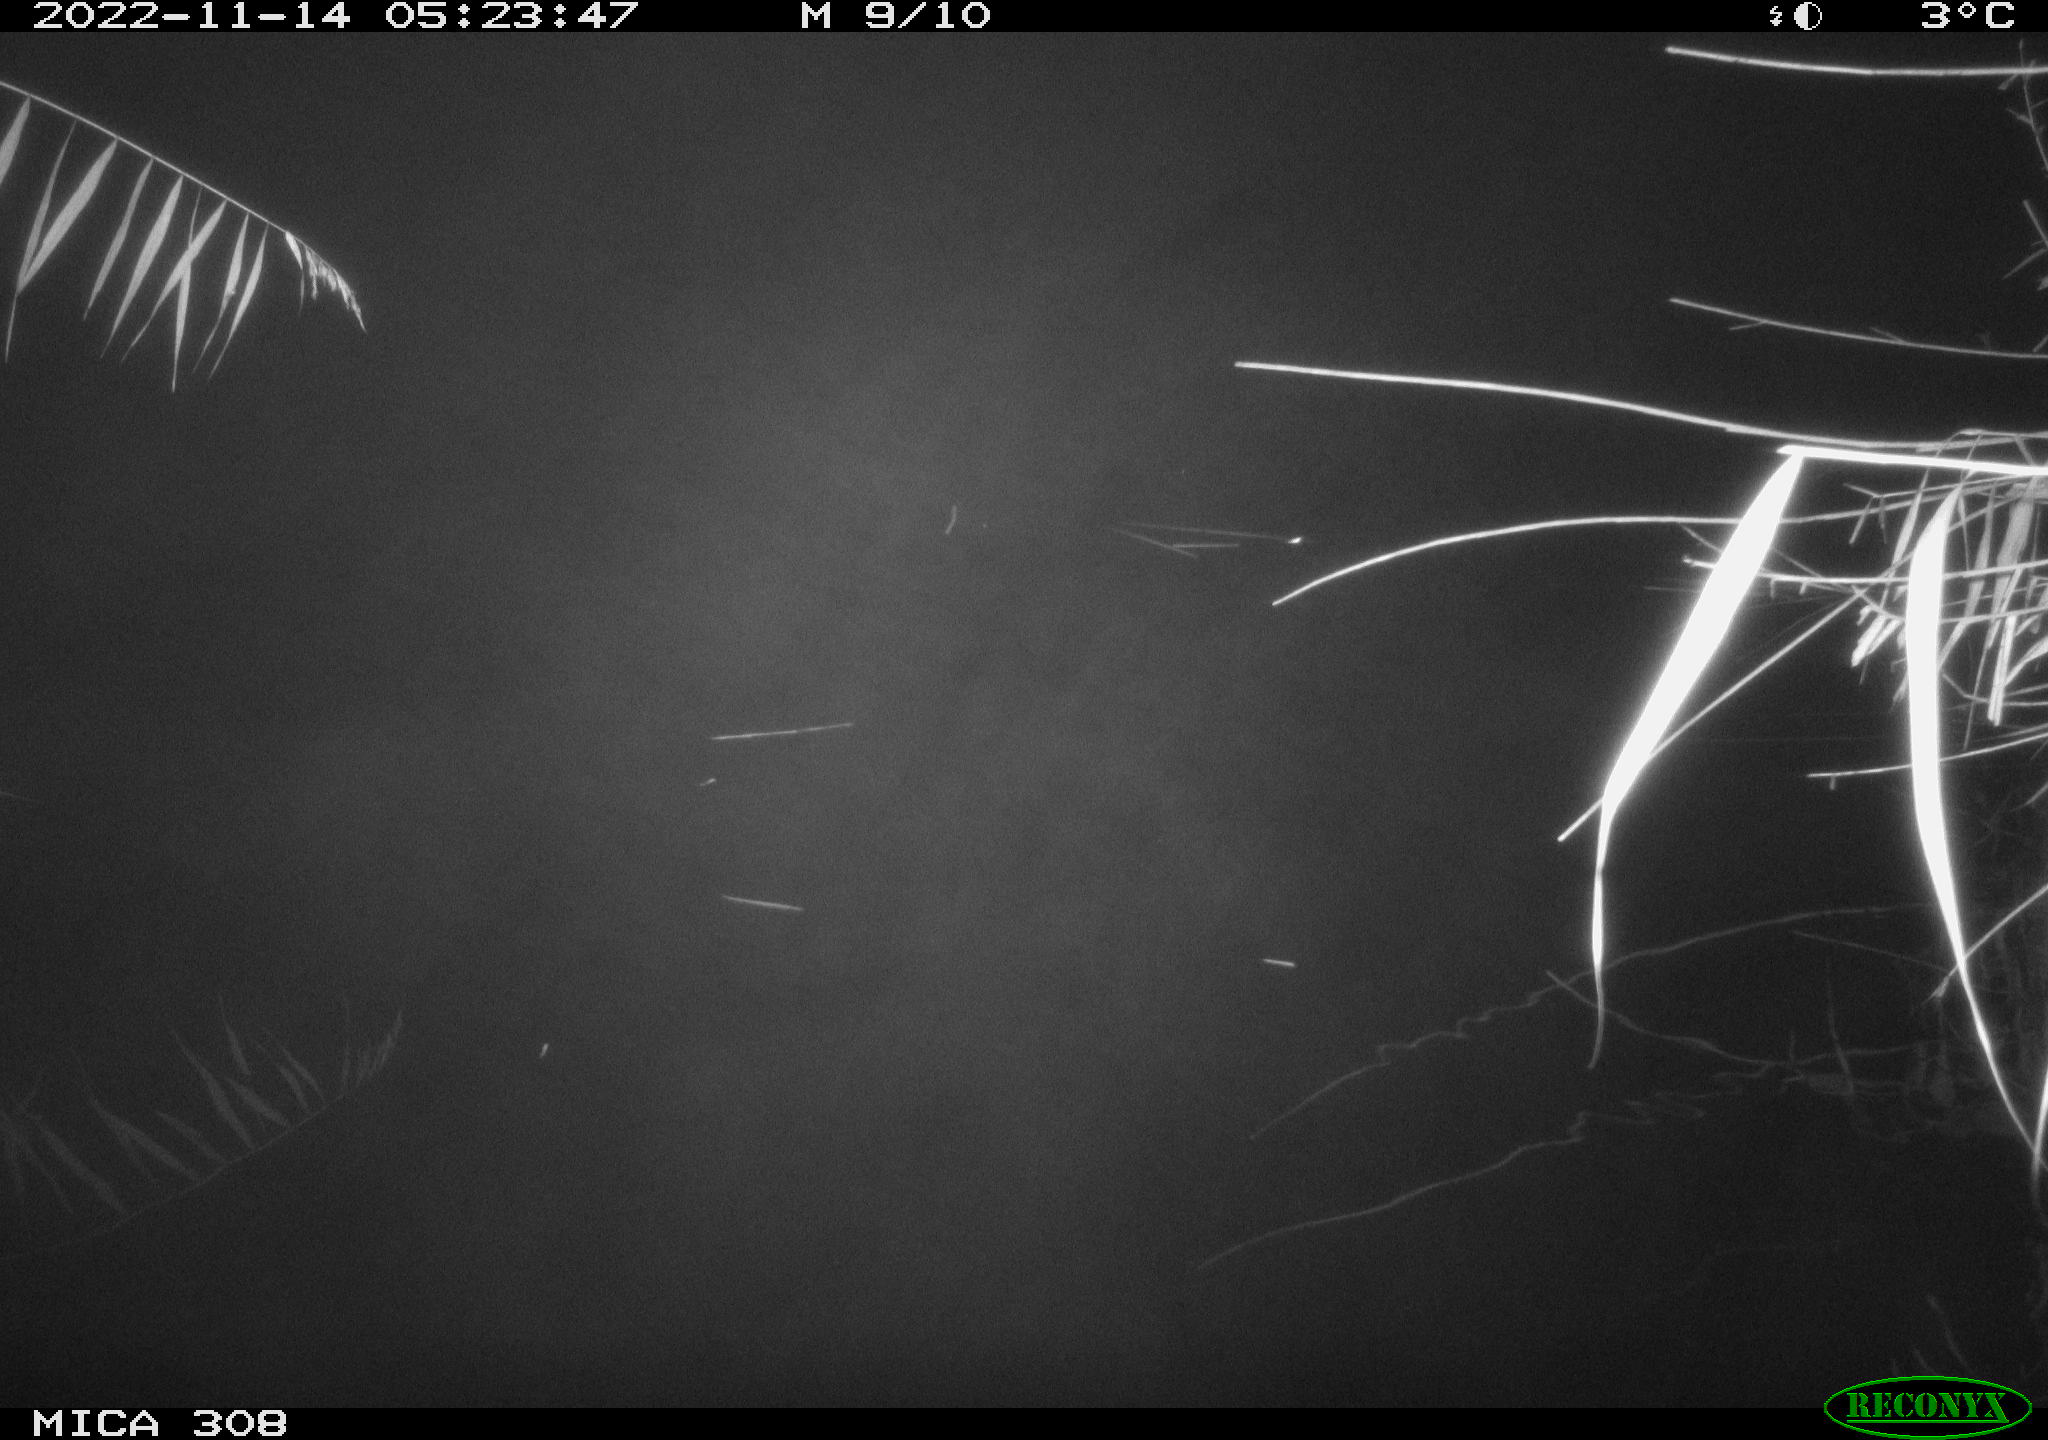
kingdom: Animalia
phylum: Chordata
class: Mammalia
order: Rodentia
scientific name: Rodentia
